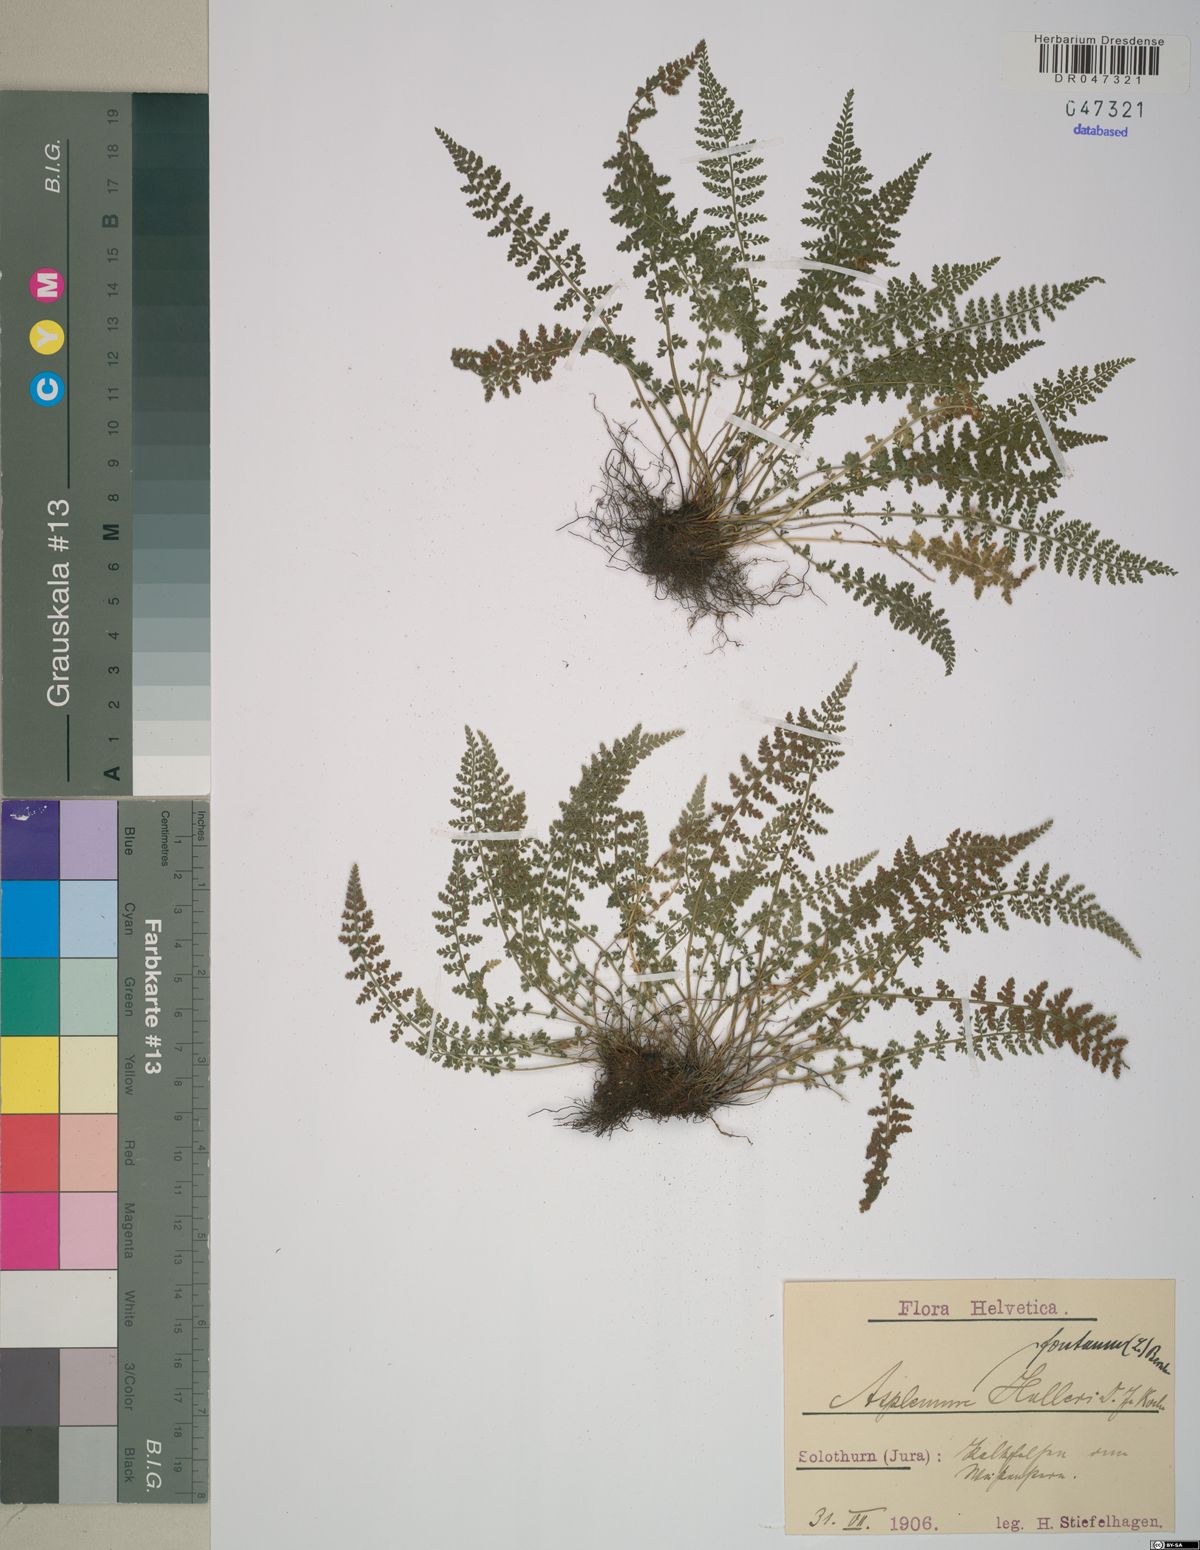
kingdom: Plantae
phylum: Tracheophyta
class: Polypodiopsida
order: Polypodiales
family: Aspleniaceae
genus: Asplenium
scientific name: Asplenium fontanum
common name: Fountain spleenwort
